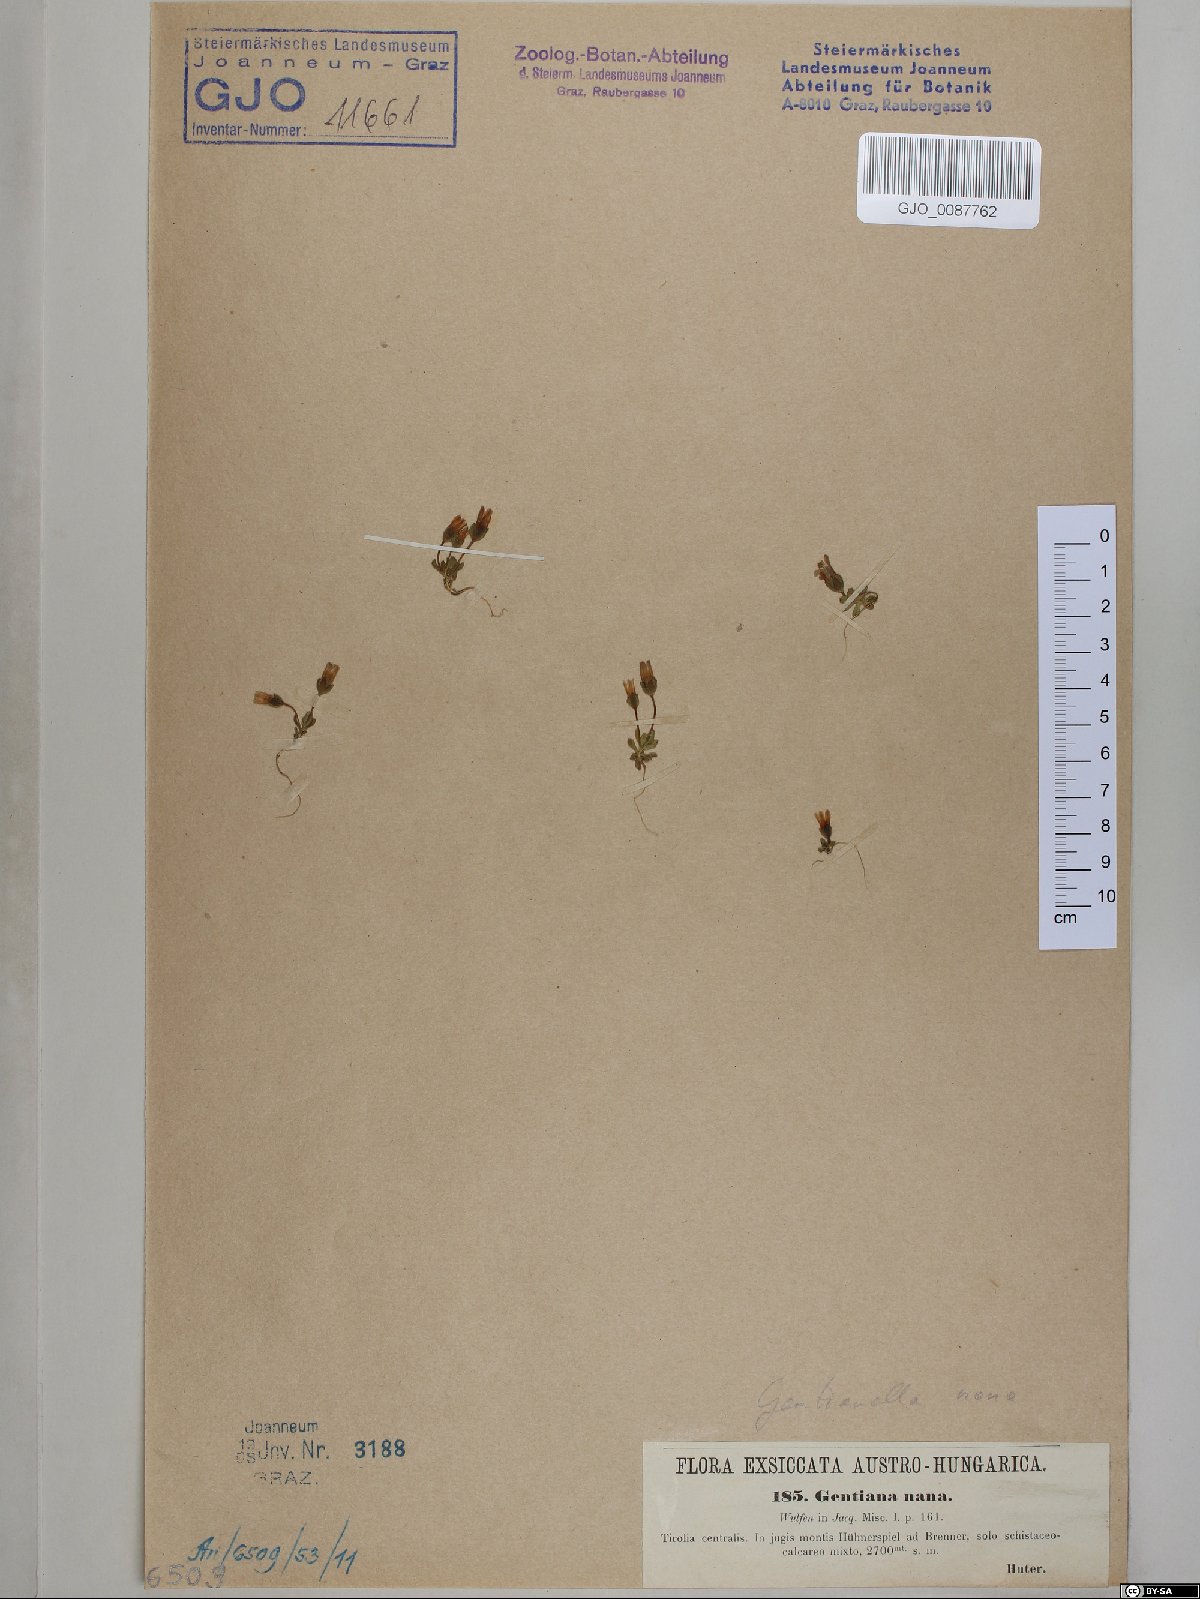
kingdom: Plantae
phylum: Tracheophyta
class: Magnoliopsida
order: Gentianales
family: Gentianaceae
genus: Comastoma
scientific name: Comastoma nanum
